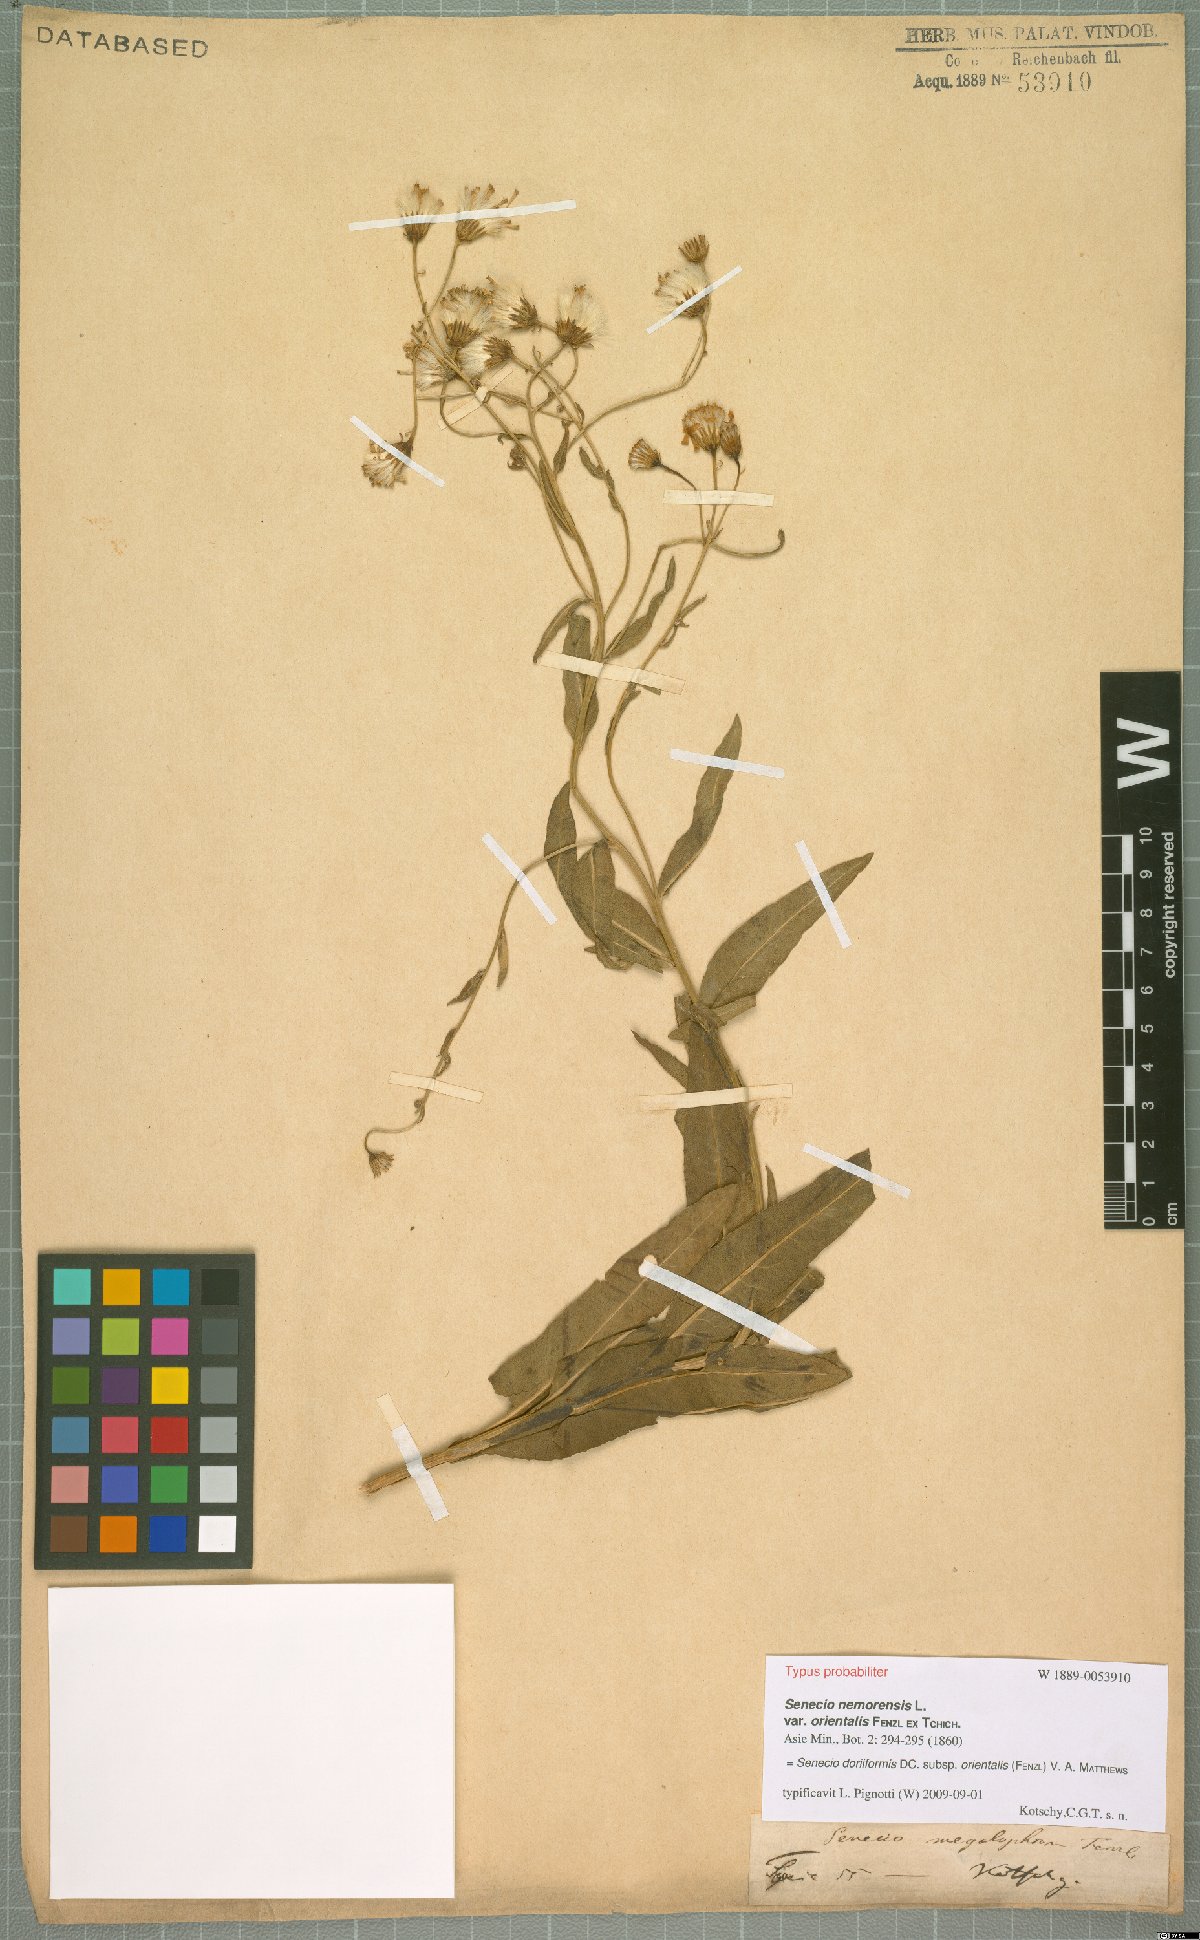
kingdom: Plantae
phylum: Tracheophyta
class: Magnoliopsida
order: Asterales
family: Asteraceae
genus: Senecio
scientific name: Senecio doriiformis
